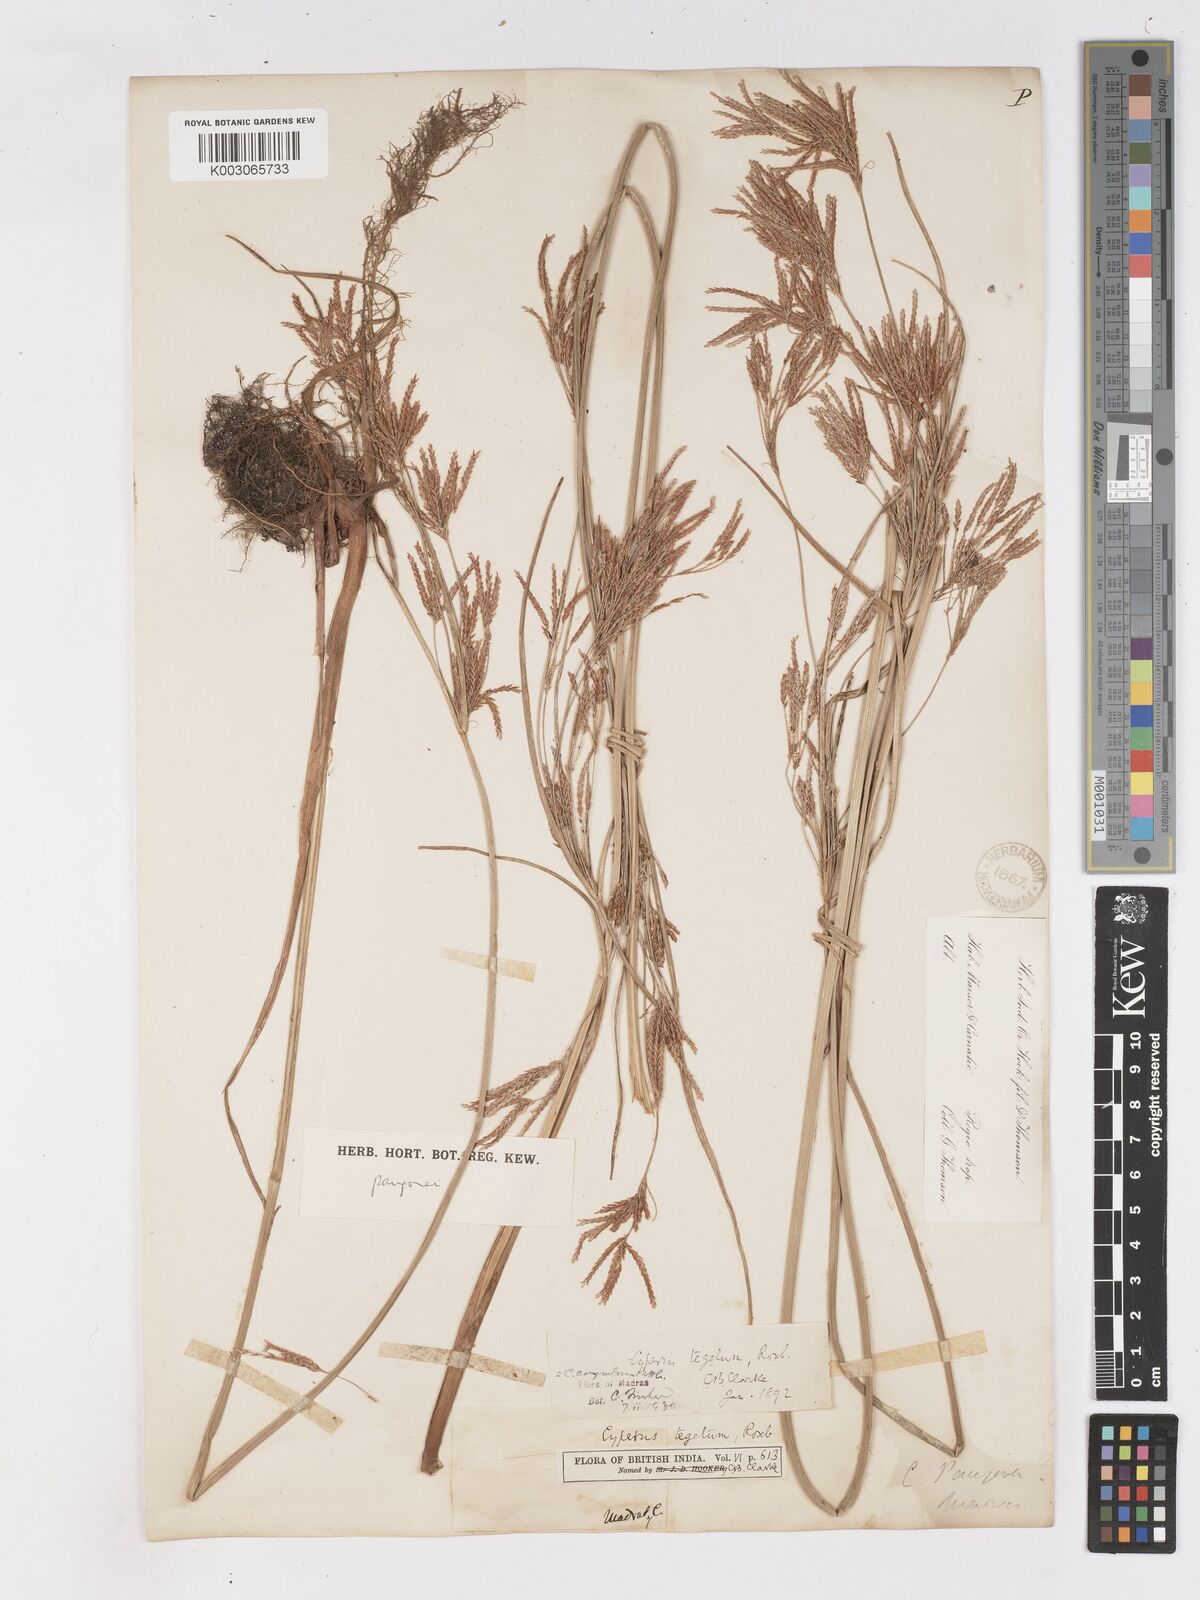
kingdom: Plantae
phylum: Tracheophyta
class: Liliopsida
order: Poales
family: Cyperaceae
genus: Cyperus
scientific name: Cyperus pangorei
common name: Mat sedge
